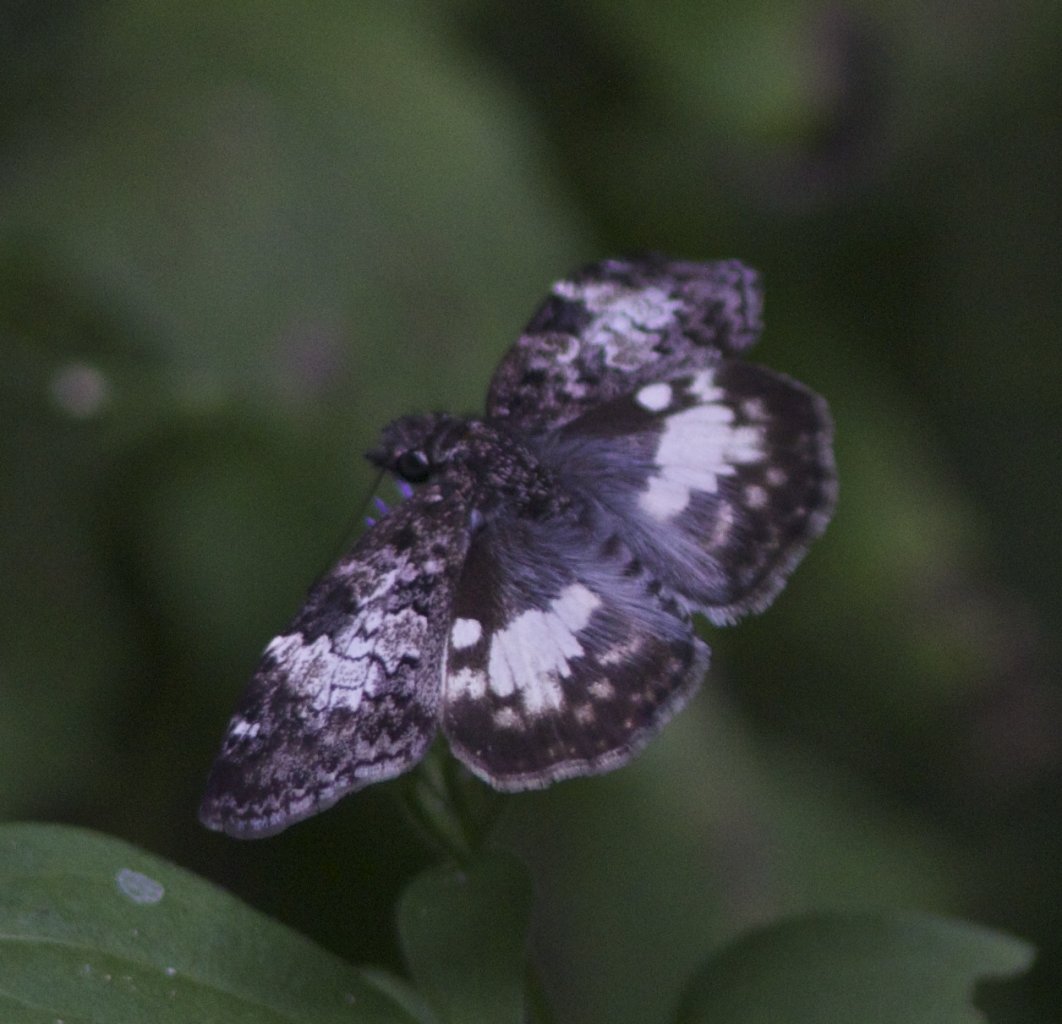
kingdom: Animalia
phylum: Arthropoda
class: Insecta
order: Lepidoptera
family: Hesperiidae
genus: Chiomara
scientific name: Chiomara asychis
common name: White-patched Skipper
